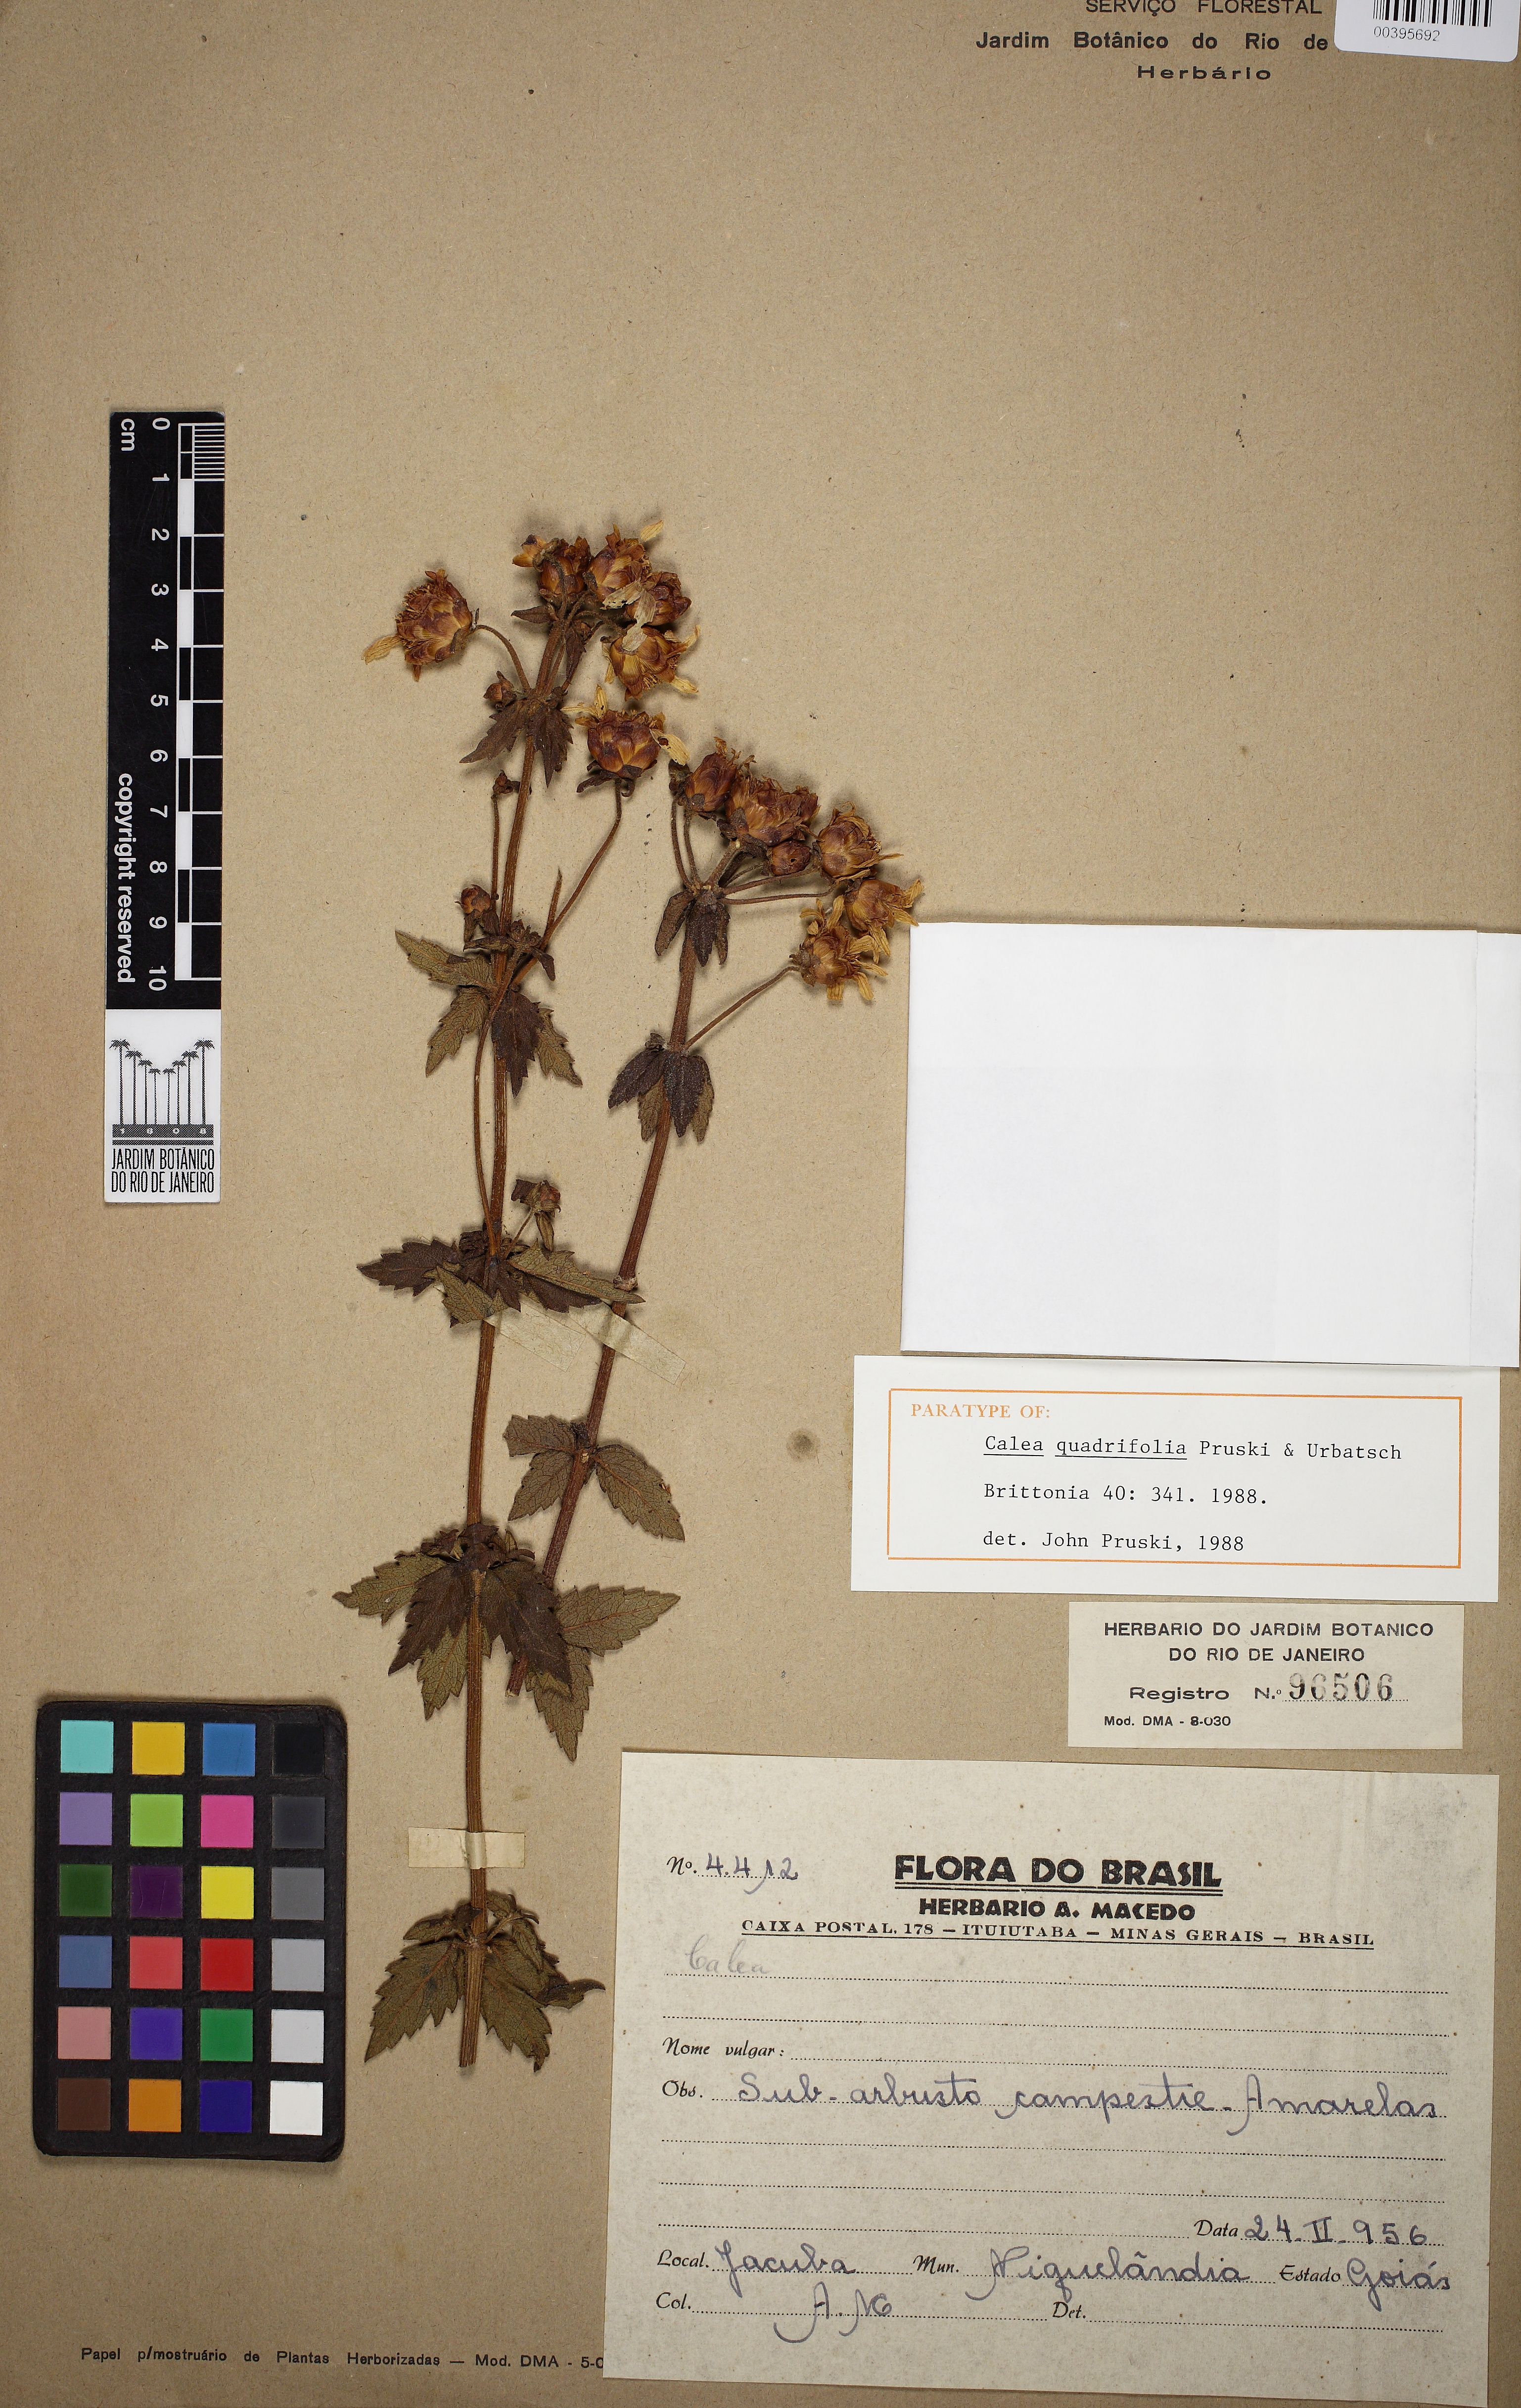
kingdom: Plantae
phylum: Tracheophyta
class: Magnoliopsida
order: Asterales
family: Asteraceae
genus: Calea
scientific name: Calea quadrifolia
